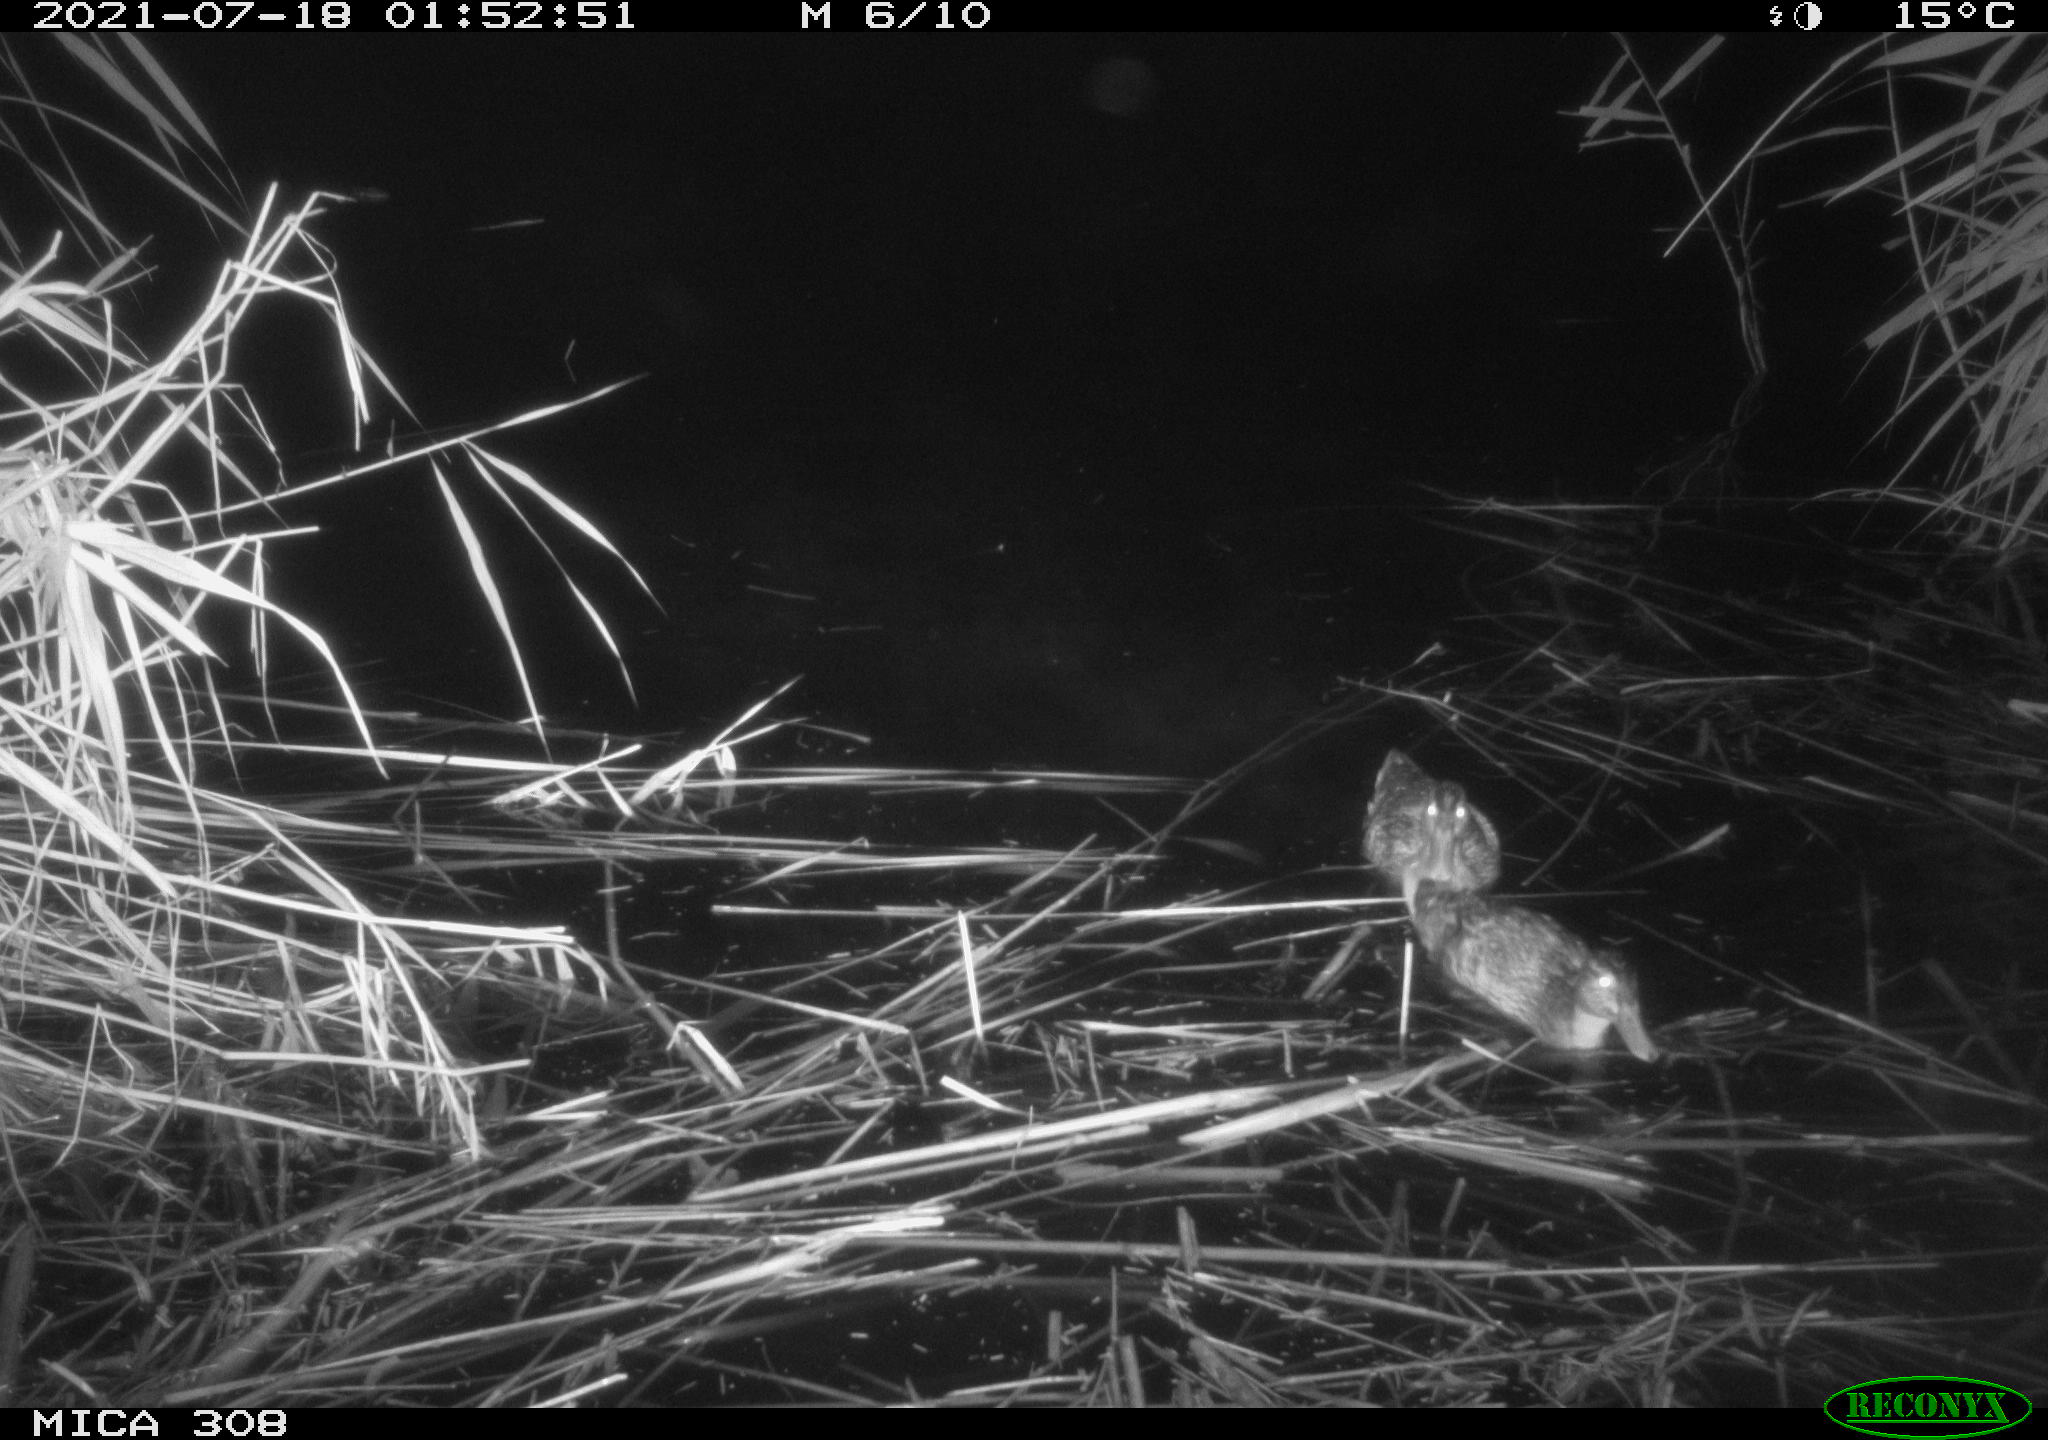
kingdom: Animalia
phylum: Chordata
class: Aves
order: Anseriformes
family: Anatidae
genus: Anas
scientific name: Anas platyrhynchos
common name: Mallard
